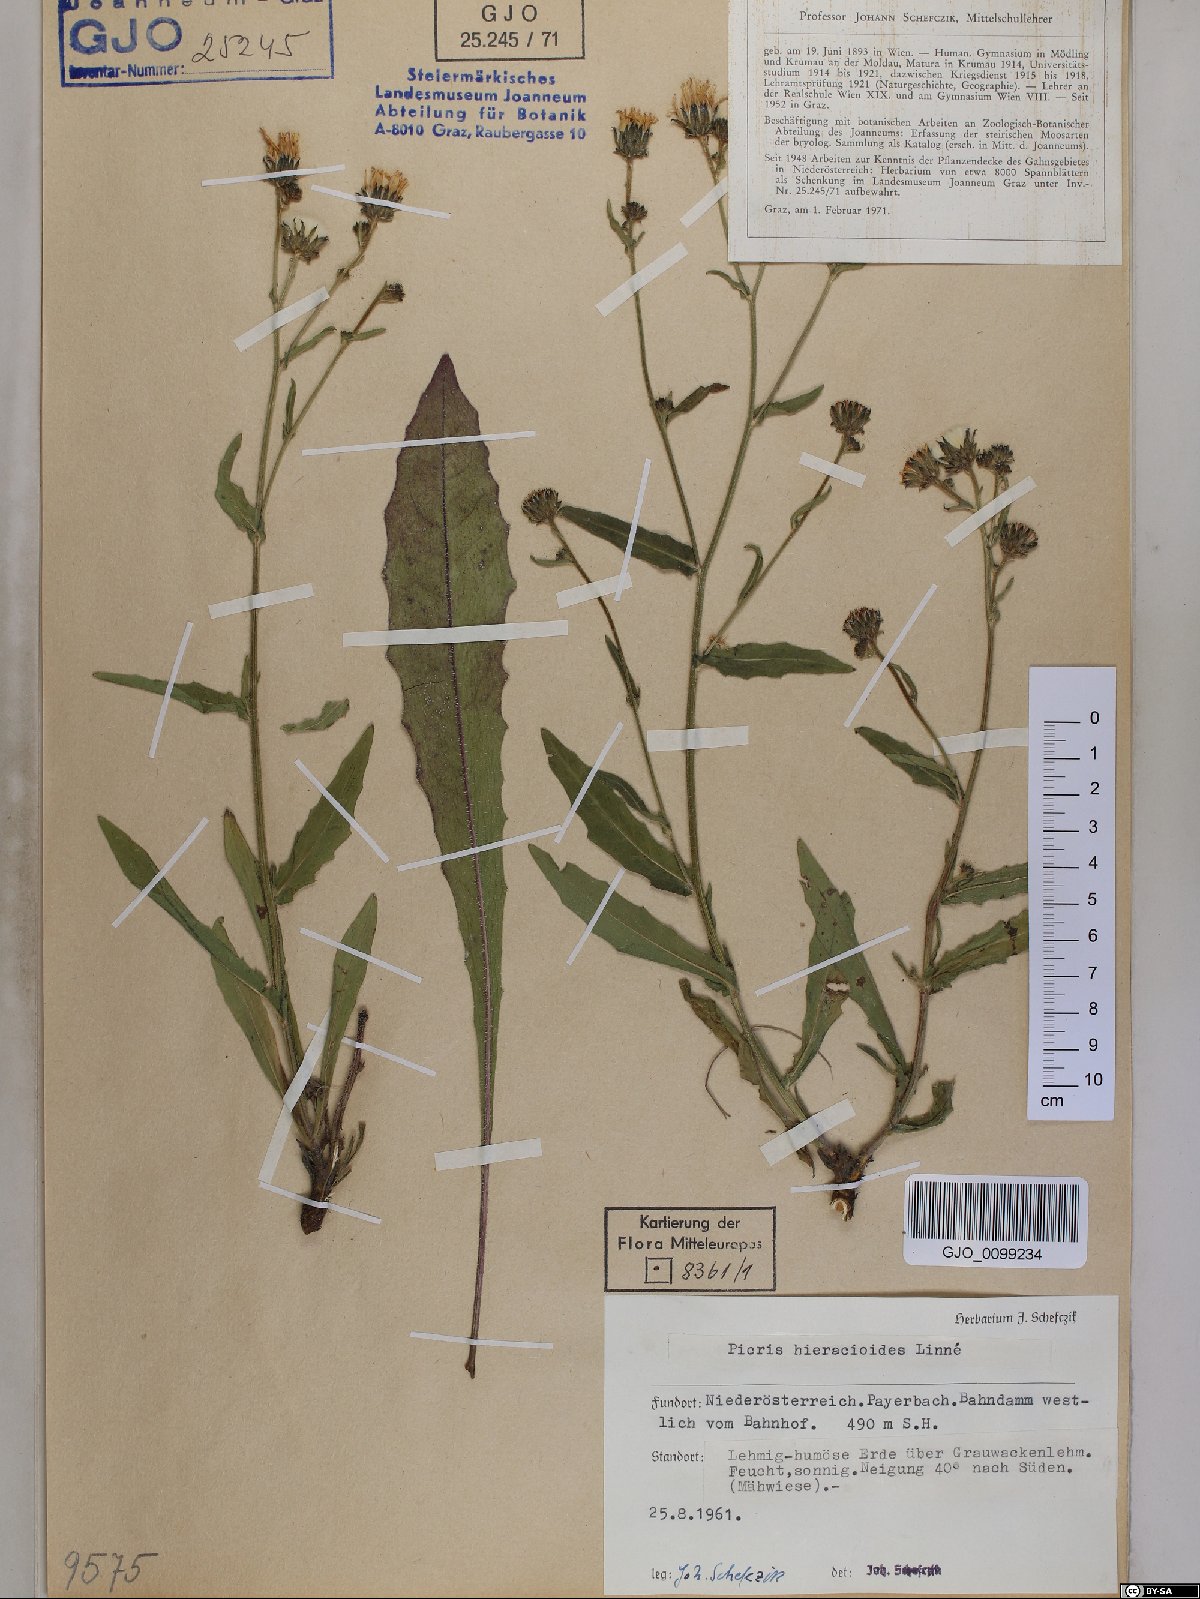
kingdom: Plantae
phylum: Tracheophyta
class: Magnoliopsida
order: Asterales
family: Asteraceae
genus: Picris
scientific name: Picris hieracioides
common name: Hawkweed oxtongue
